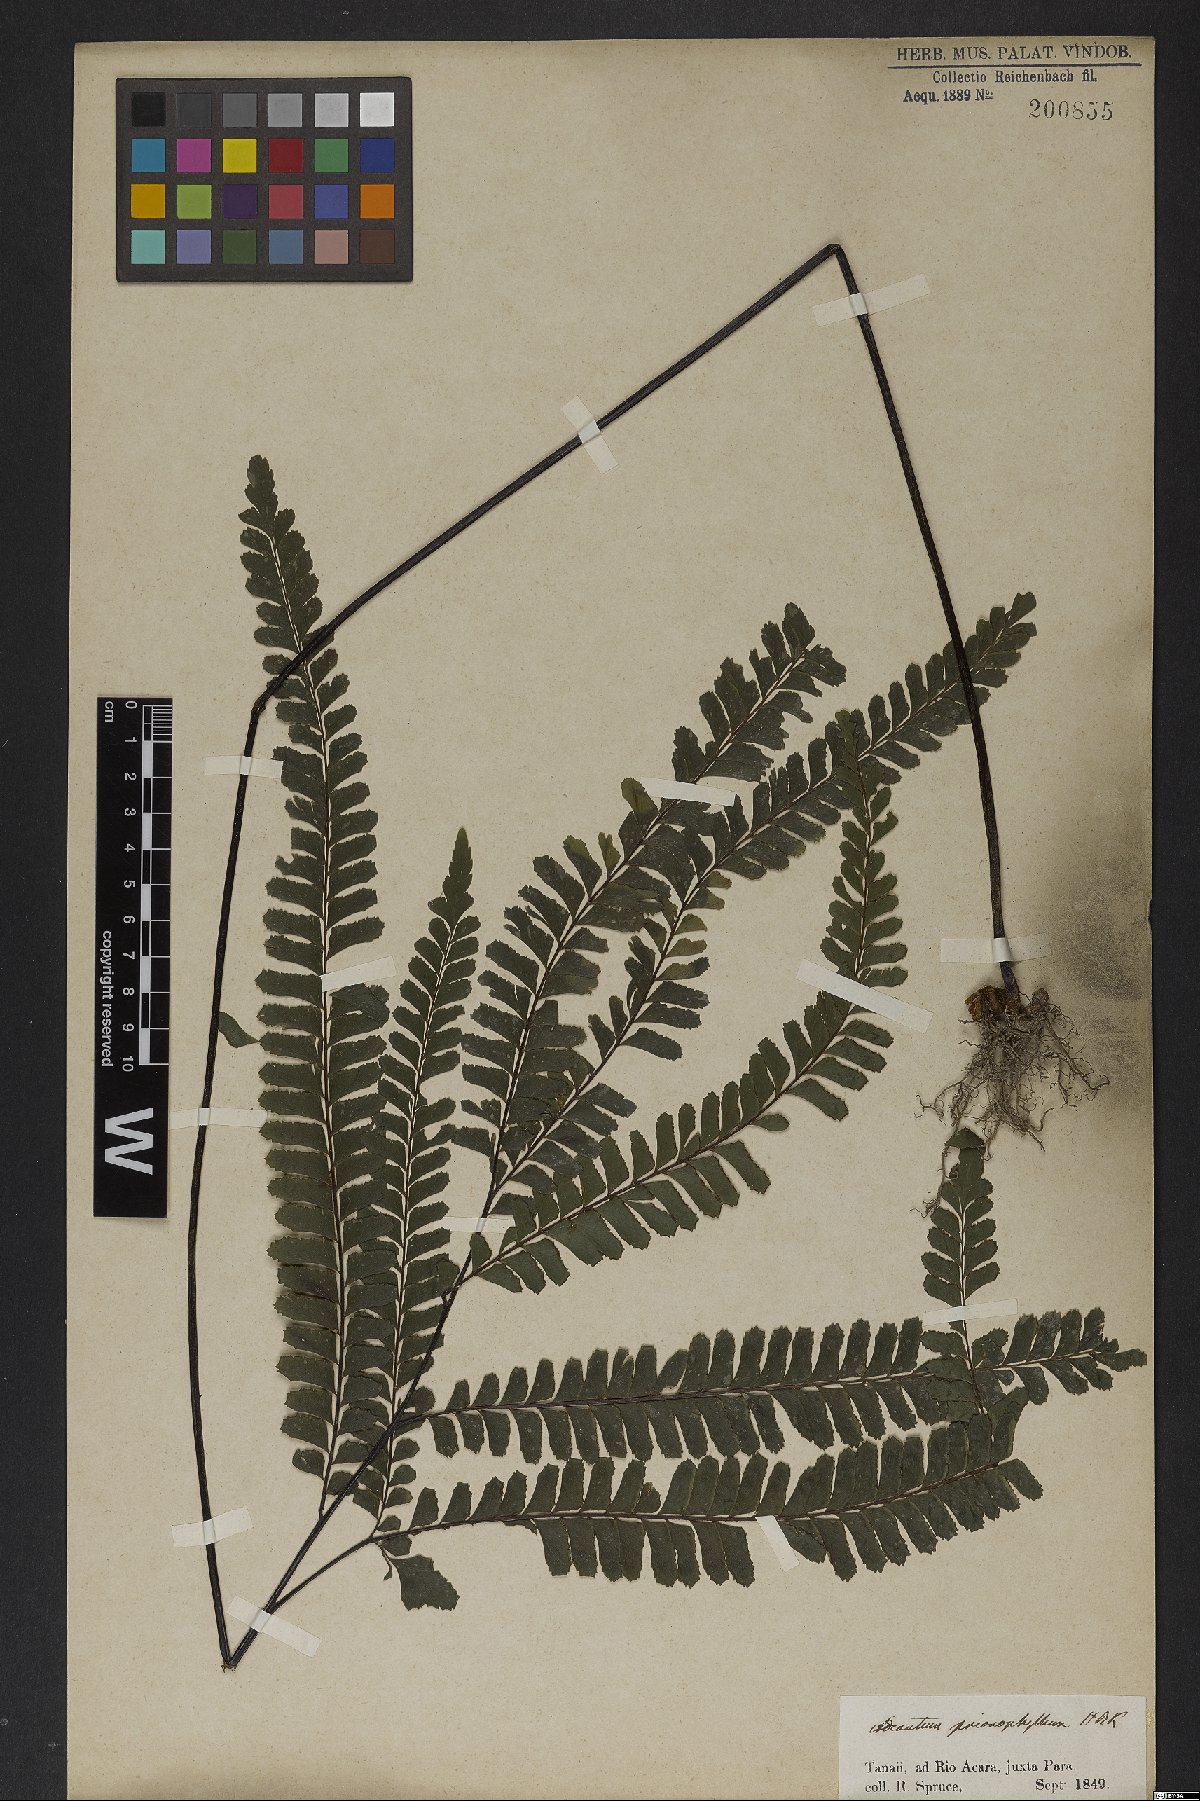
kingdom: Plantae
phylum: Tracheophyta
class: Polypodiopsida
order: Polypodiales
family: Pteridaceae
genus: Adiantum
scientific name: Adiantum tetraphyllum
